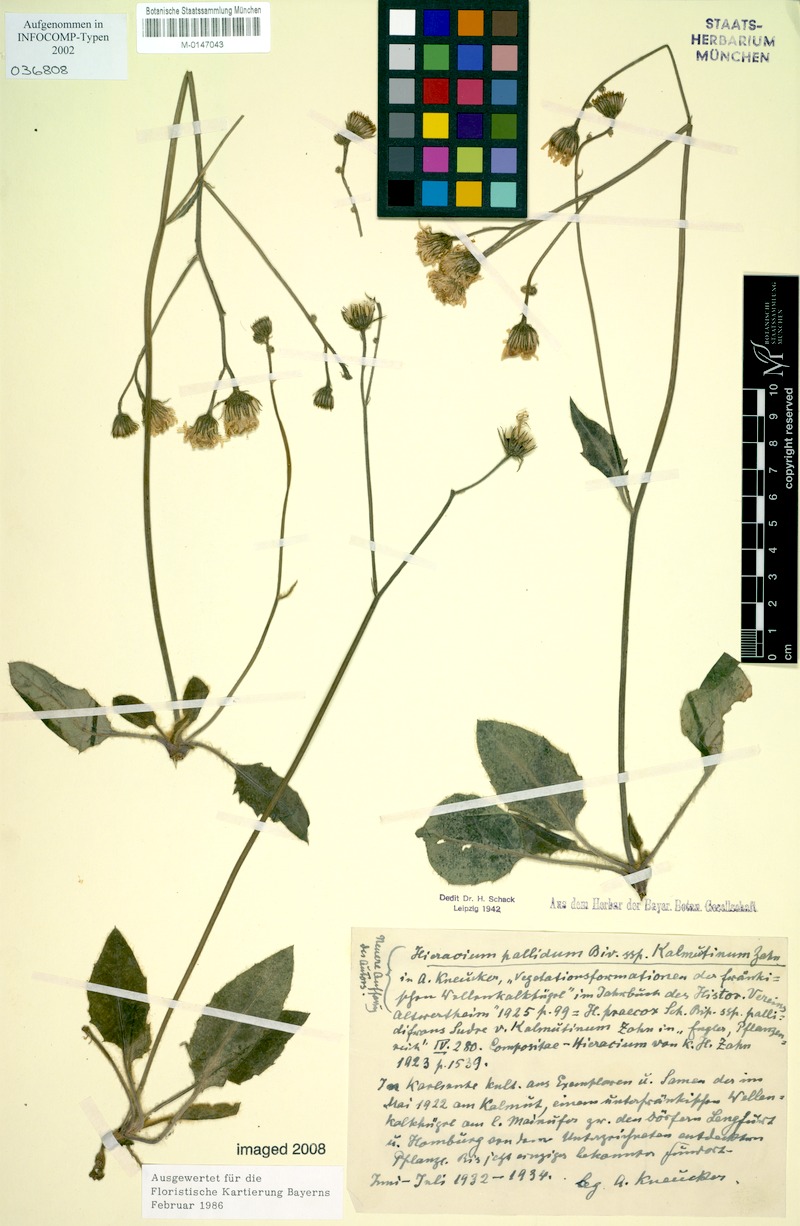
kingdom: Plantae
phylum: Tracheophyta
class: Magnoliopsida
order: Asterales
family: Asteraceae
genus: Hieracium
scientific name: Hieracium hypochoeroides
